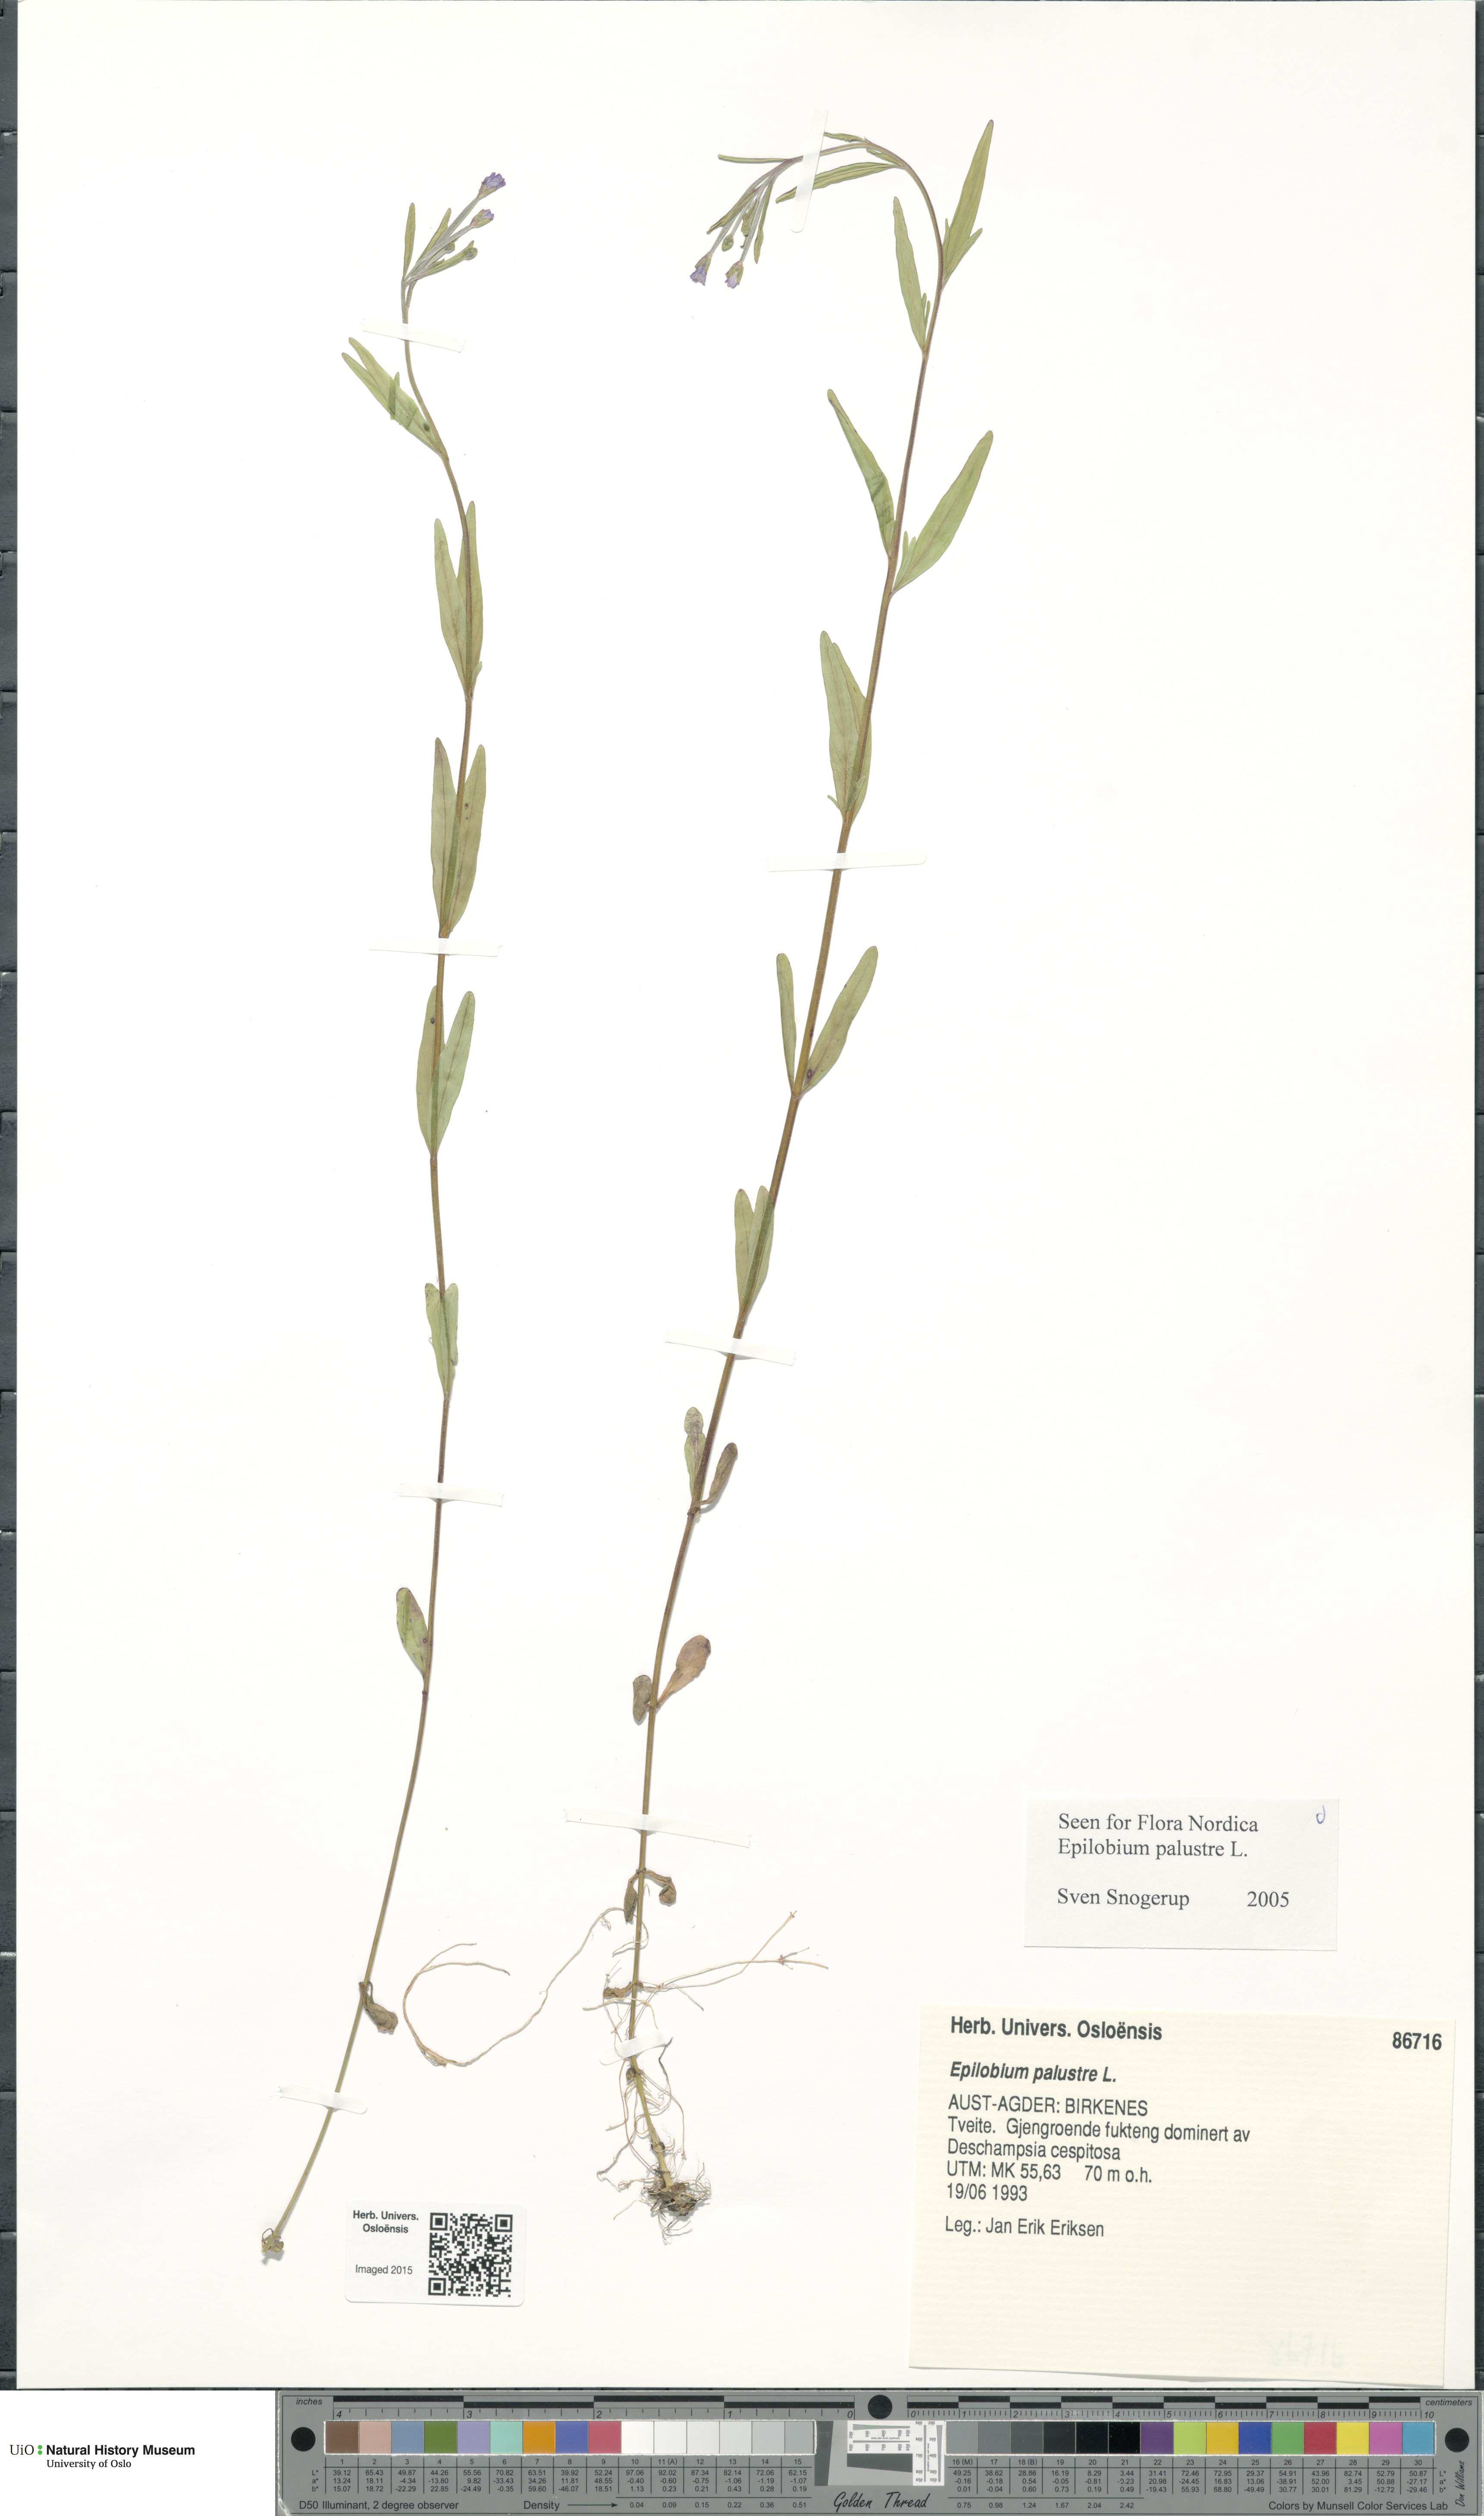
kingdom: Plantae
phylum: Tracheophyta
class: Magnoliopsida
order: Myrtales
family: Onagraceae
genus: Epilobium
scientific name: Epilobium palustre
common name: Marsh willowherb
